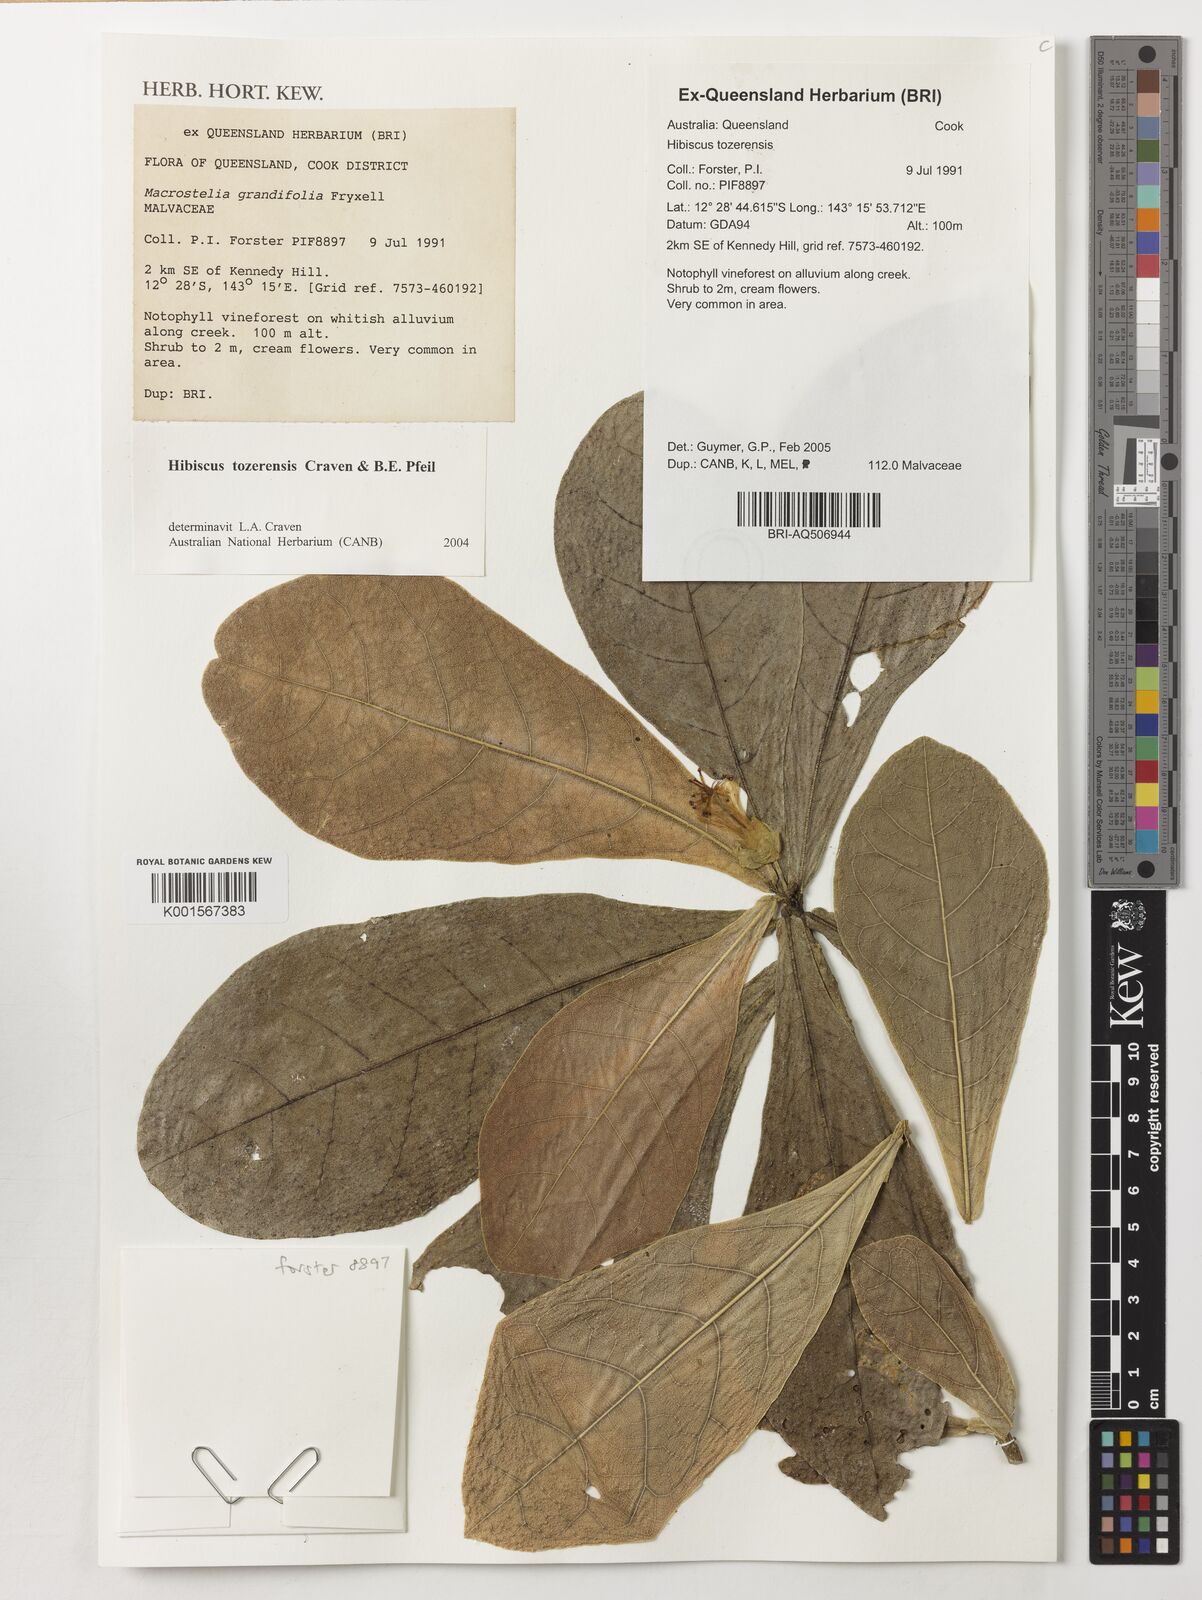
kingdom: Plantae
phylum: Tracheophyta
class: Magnoliopsida
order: Malvales
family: Malvaceae
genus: Hibiscus
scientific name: Hibiscus tozerensis
